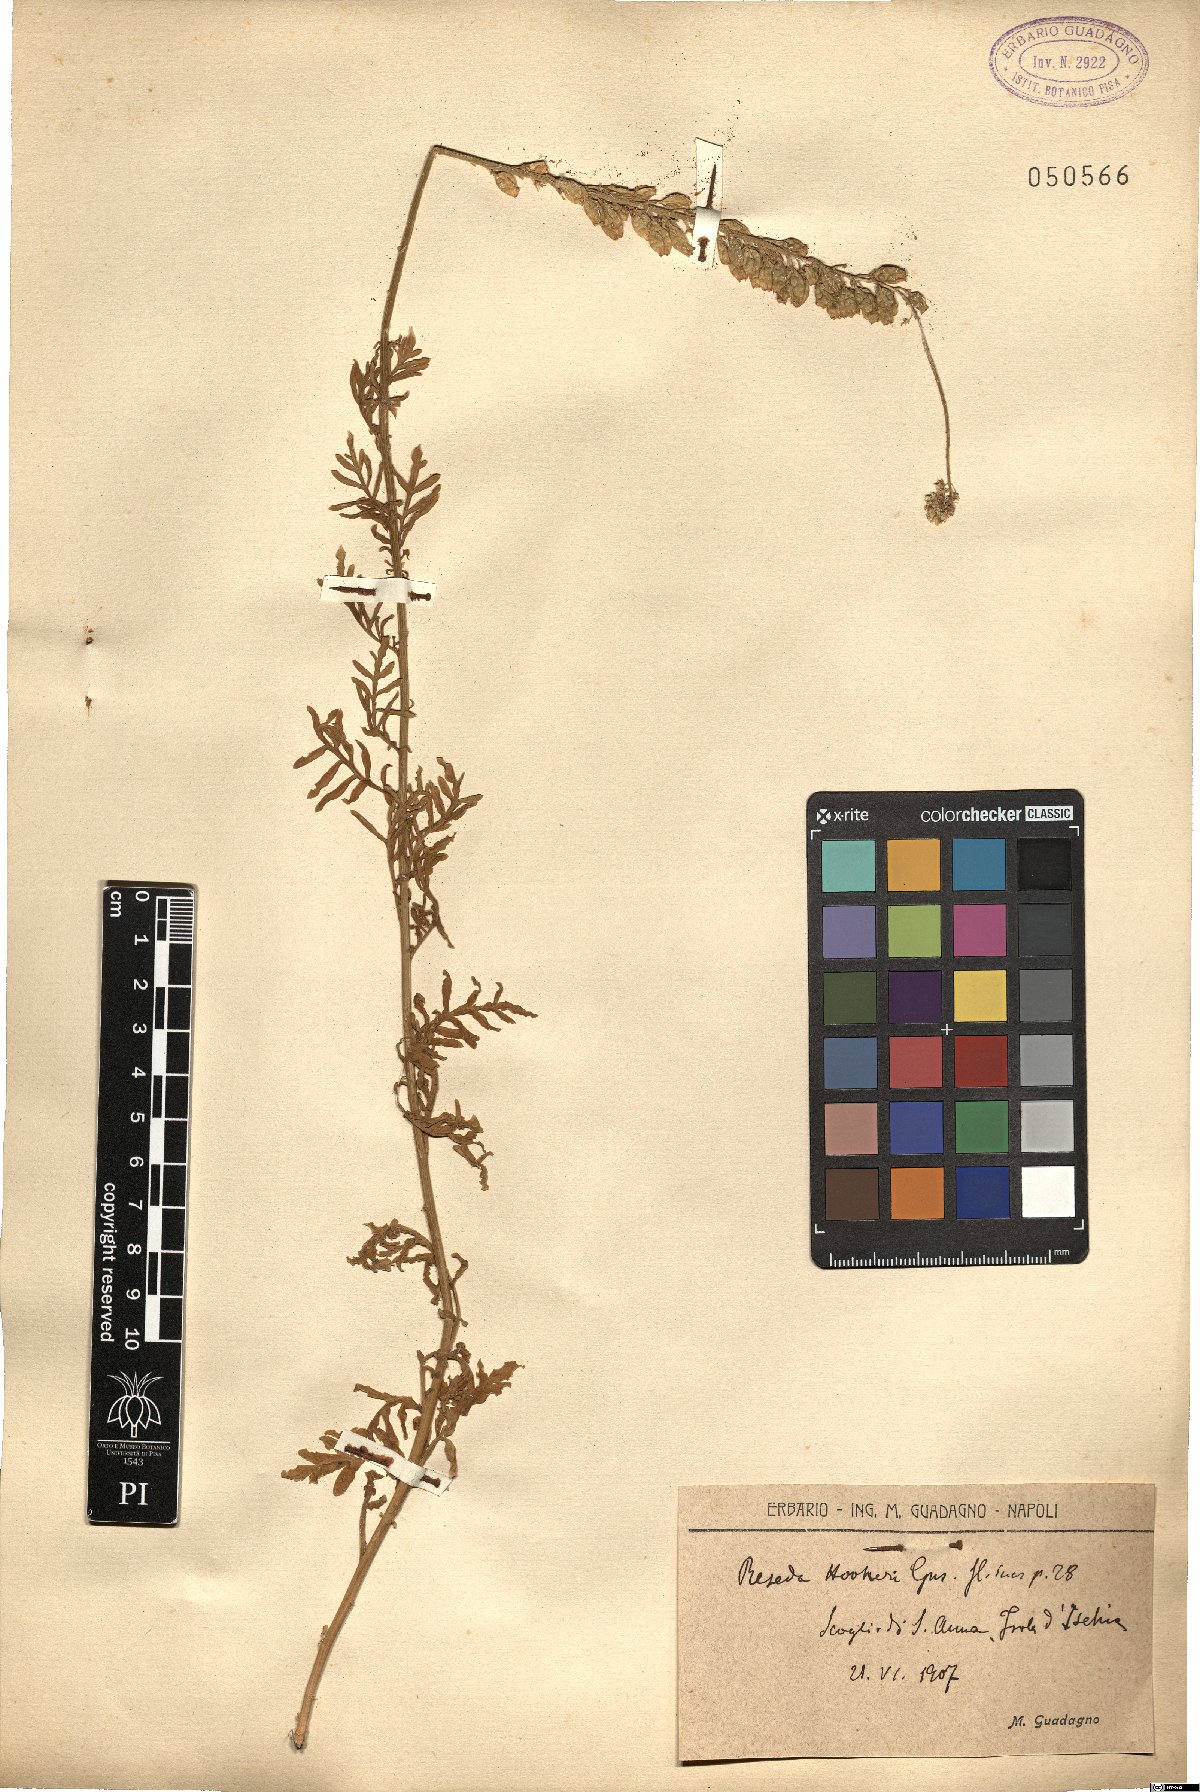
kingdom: Plantae
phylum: Tracheophyta
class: Magnoliopsida
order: Brassicales
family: Resedaceae
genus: Reseda
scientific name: Reseda alba
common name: White mignonette
